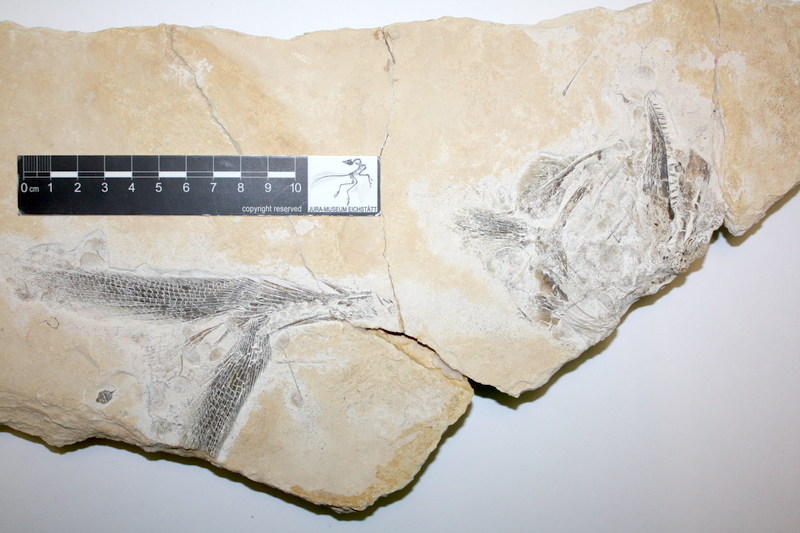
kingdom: Animalia
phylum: Chordata
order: Amiiformes
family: Caturidae
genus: Caturus
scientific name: Caturus
